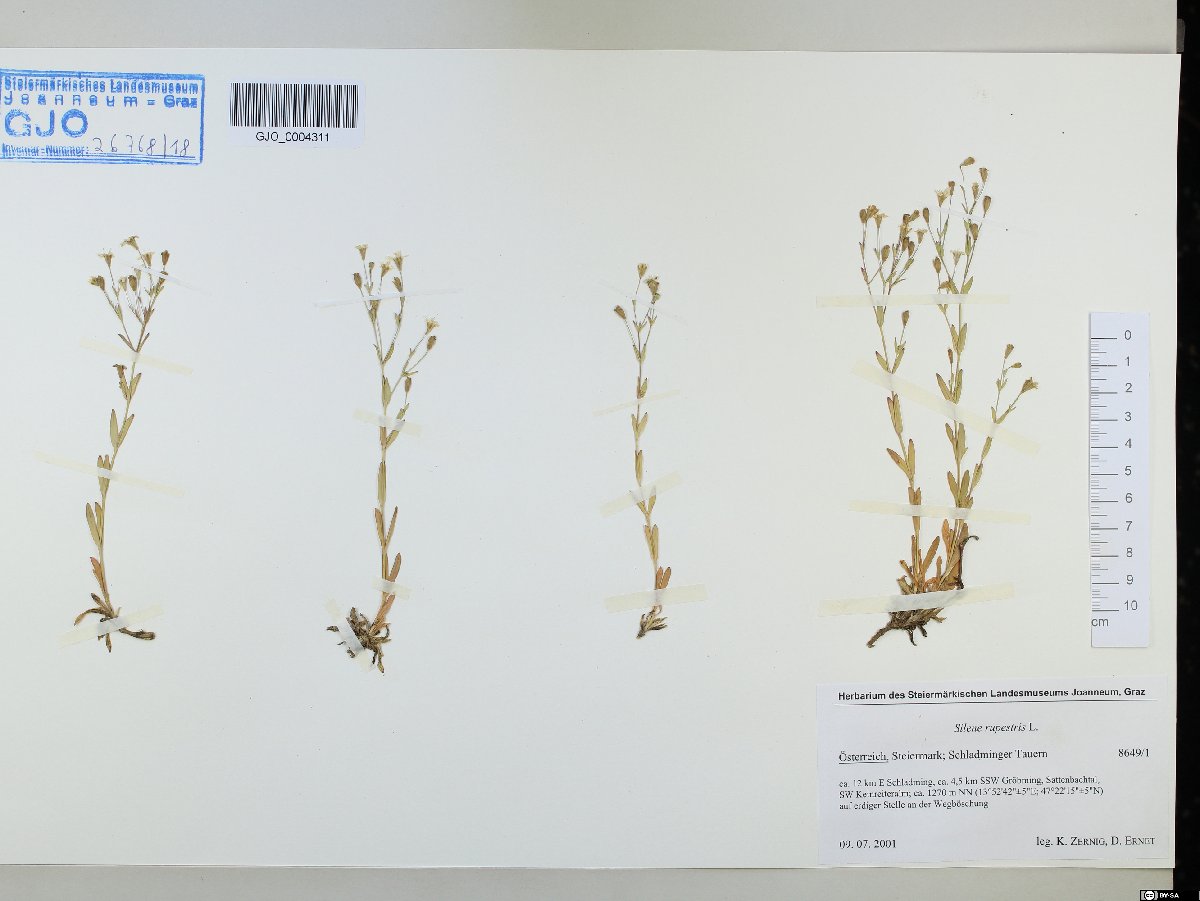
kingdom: Plantae
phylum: Tracheophyta
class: Magnoliopsida
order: Caryophyllales
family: Caryophyllaceae
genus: Atocion
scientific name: Atocion rupestre
